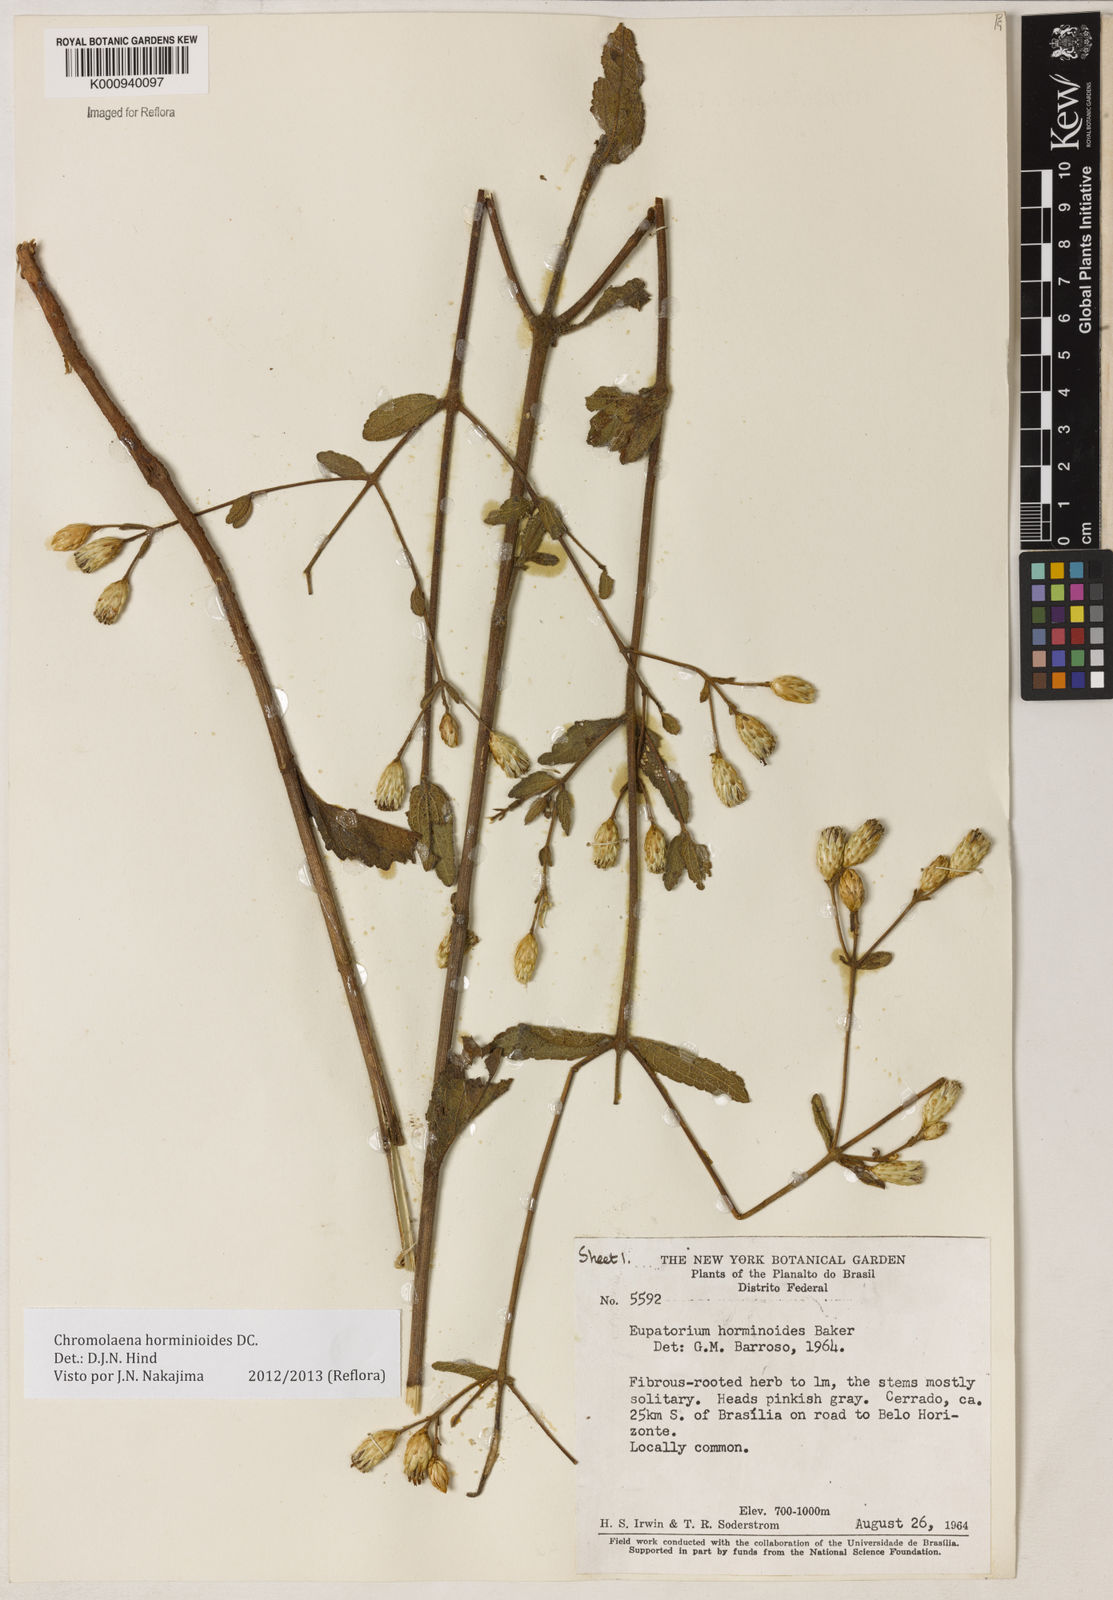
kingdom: Plantae
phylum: Tracheophyta
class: Magnoliopsida
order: Asterales
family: Asteraceae
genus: Chromolaena
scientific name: Chromolaena horminoides
